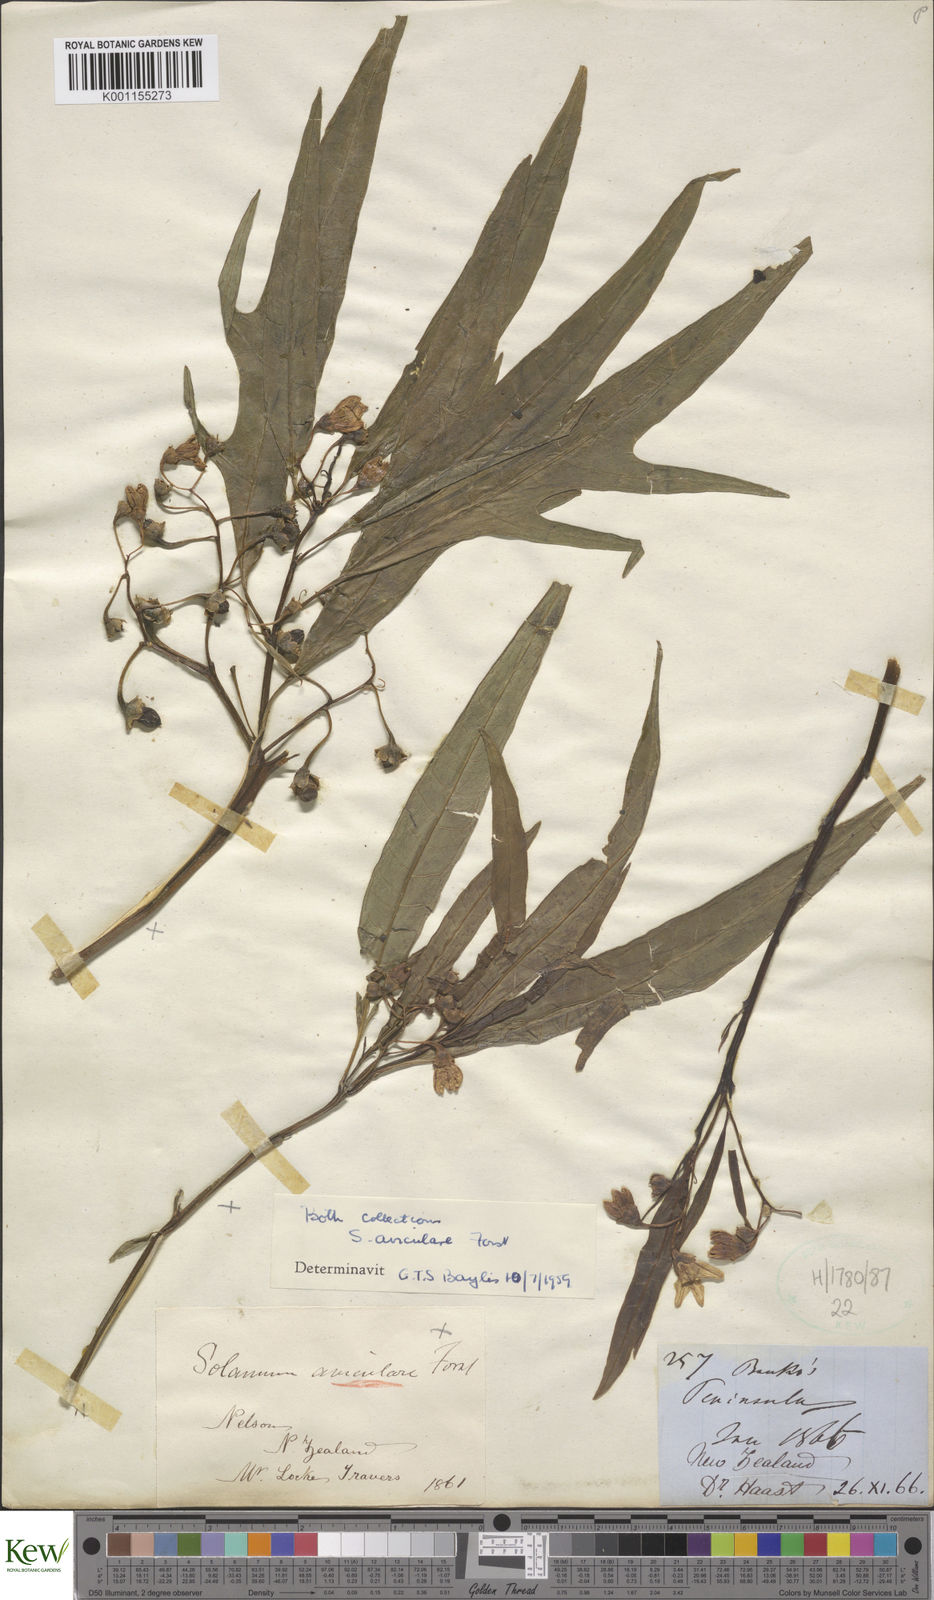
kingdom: Plantae
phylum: Tracheophyta
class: Magnoliopsida
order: Solanales
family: Solanaceae
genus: Solanum
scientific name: Solanum aviculare
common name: New zealand nightshade
